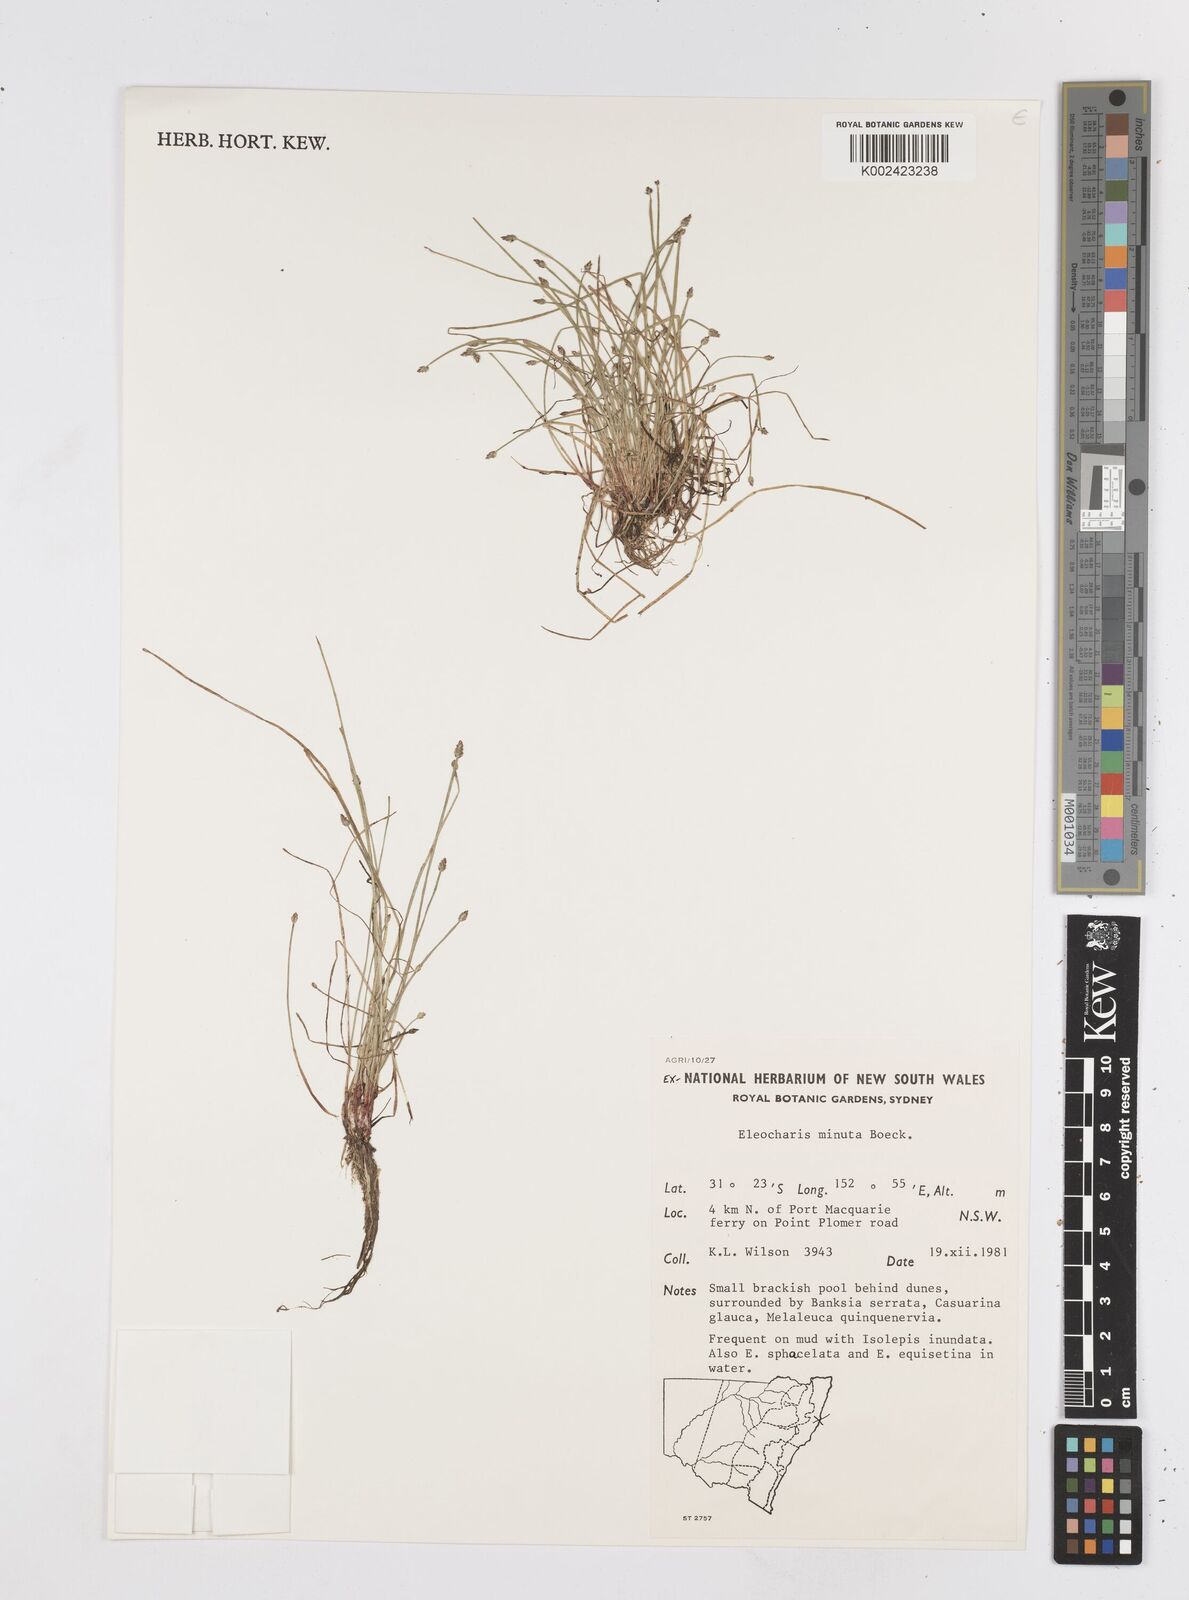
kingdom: Plantae
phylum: Tracheophyta
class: Liliopsida
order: Poales
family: Cyperaceae
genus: Eleocharis
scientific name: Eleocharis minuta
